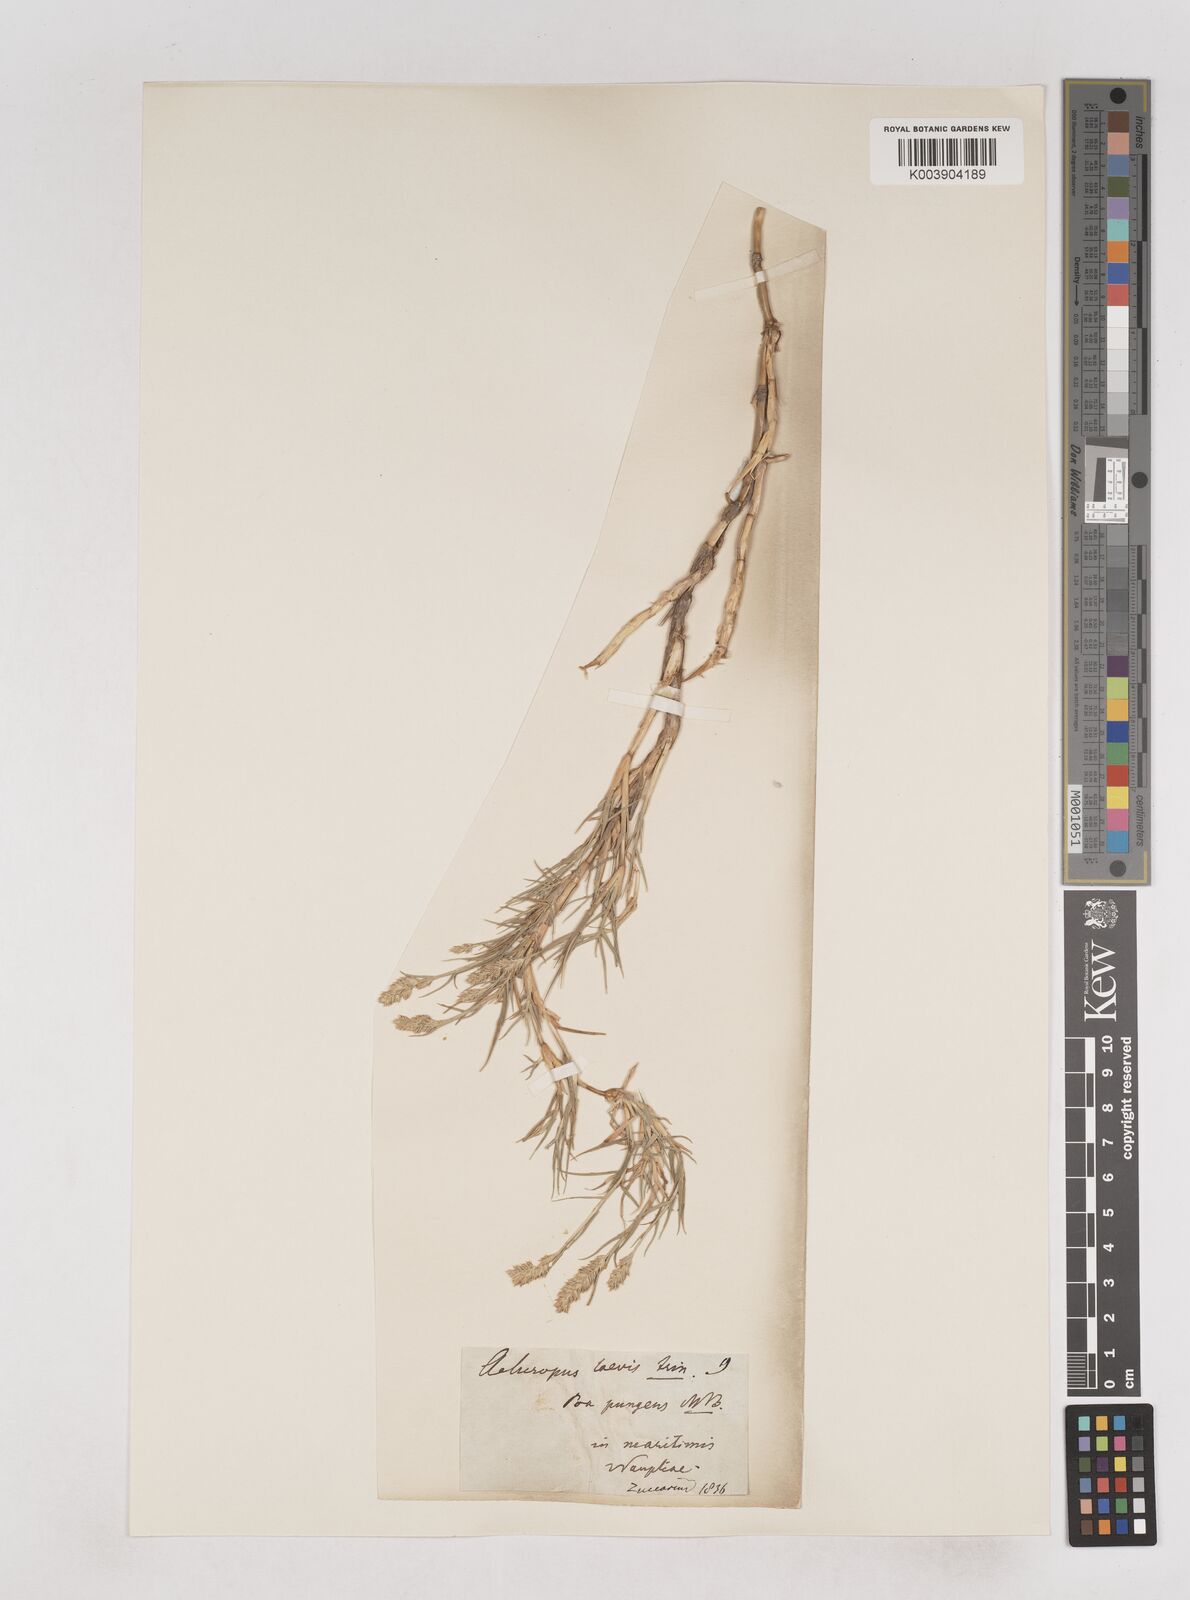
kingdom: Plantae
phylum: Tracheophyta
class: Liliopsida
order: Poales
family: Poaceae
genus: Aeluropus
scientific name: Aeluropus littoralis
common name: Indian walnut
